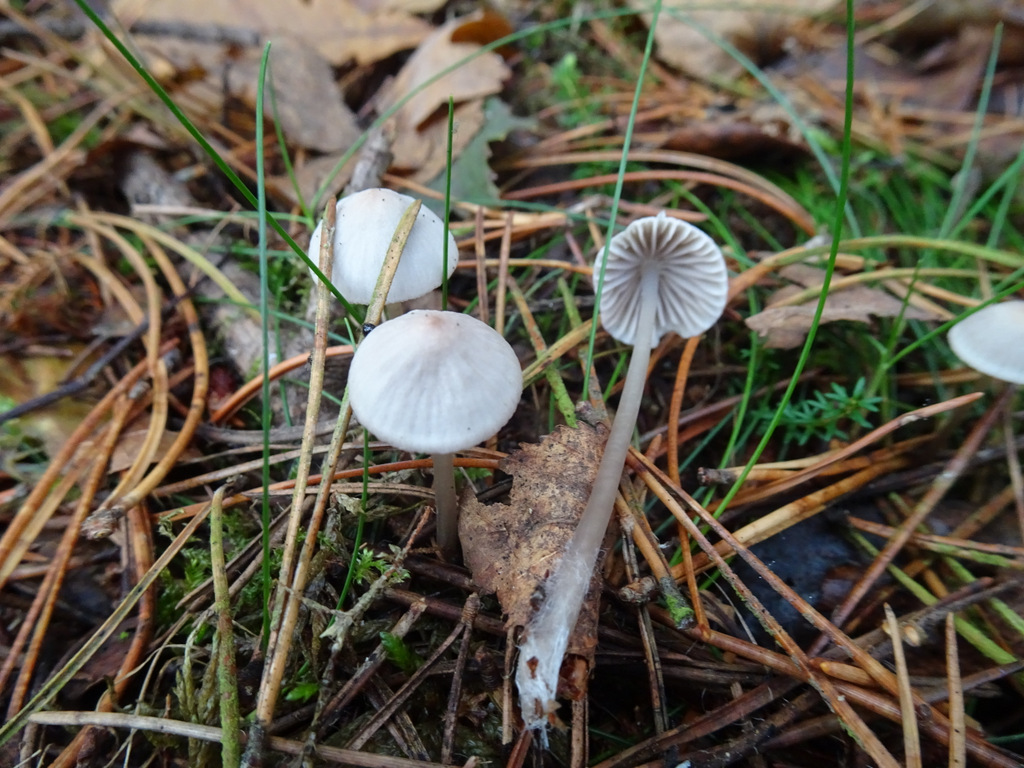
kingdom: Fungi
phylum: Basidiomycota
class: Agaricomycetes
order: Agaricales
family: Mycenaceae
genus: Mycena
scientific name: Mycena
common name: huesvamp
